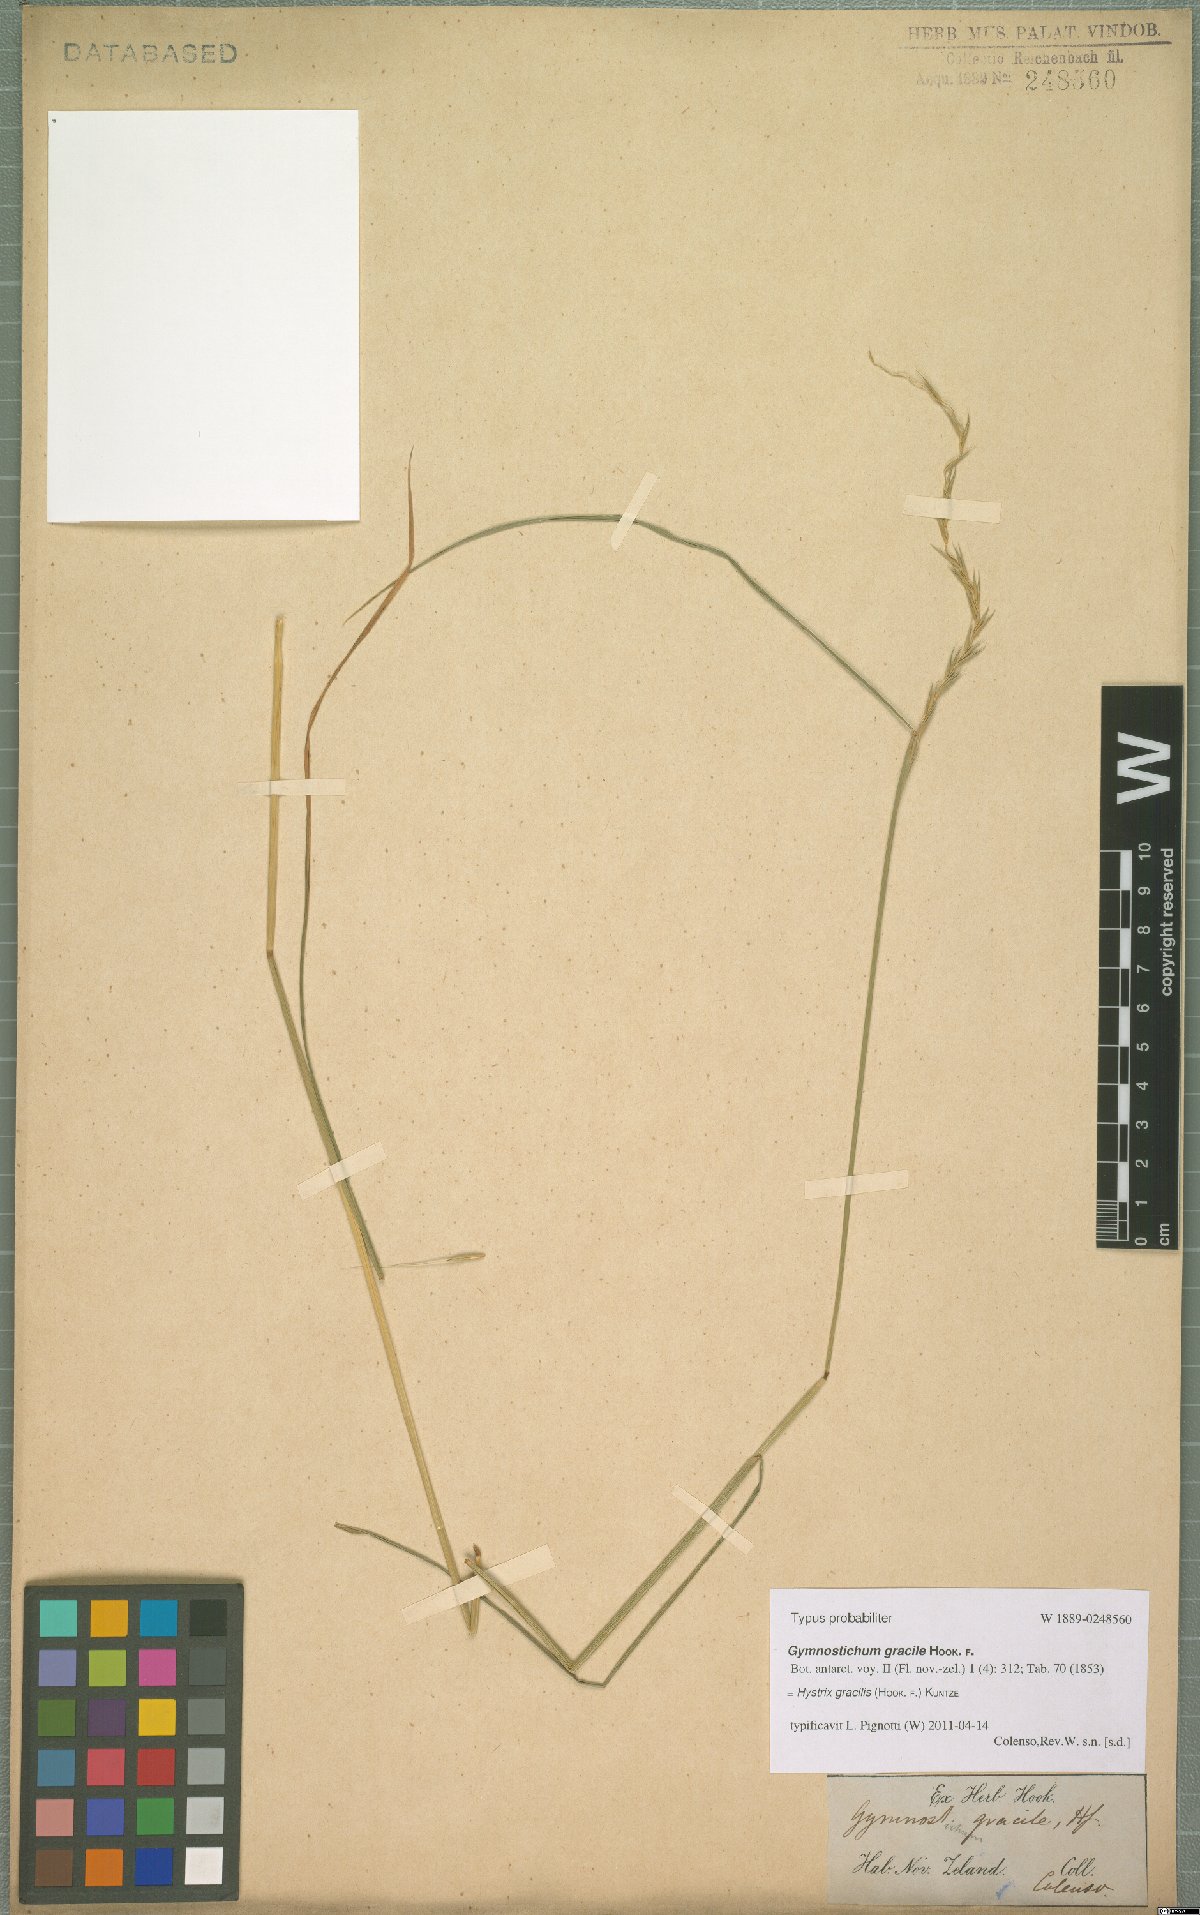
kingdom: Plantae
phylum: Tracheophyta
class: Liliopsida
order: Poales
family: Poaceae
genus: Stenostachys
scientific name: Stenostachys gracilis
